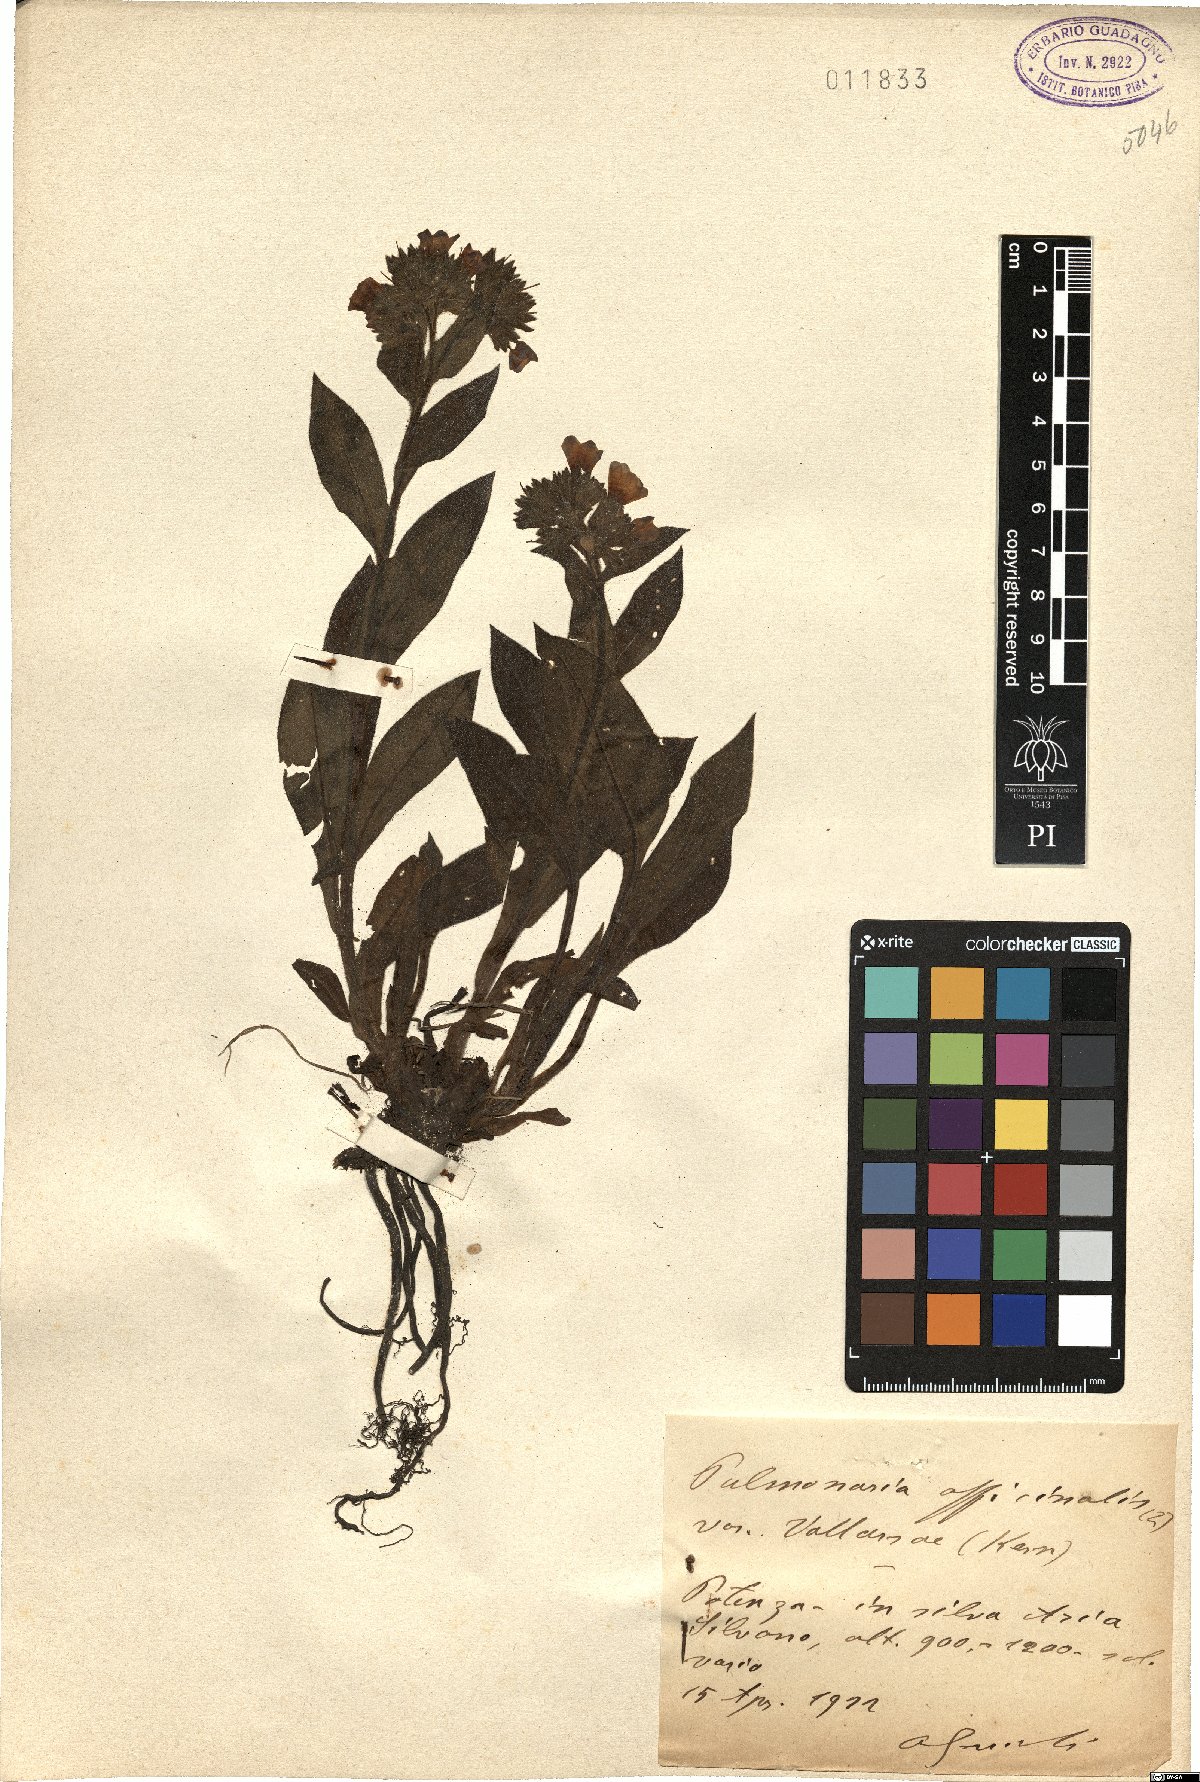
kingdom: Plantae
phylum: Tracheophyta
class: Magnoliopsida
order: Boraginales
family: Boraginaceae
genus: Pulmonaria
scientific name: Pulmonaria officinalis
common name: Lungwort
